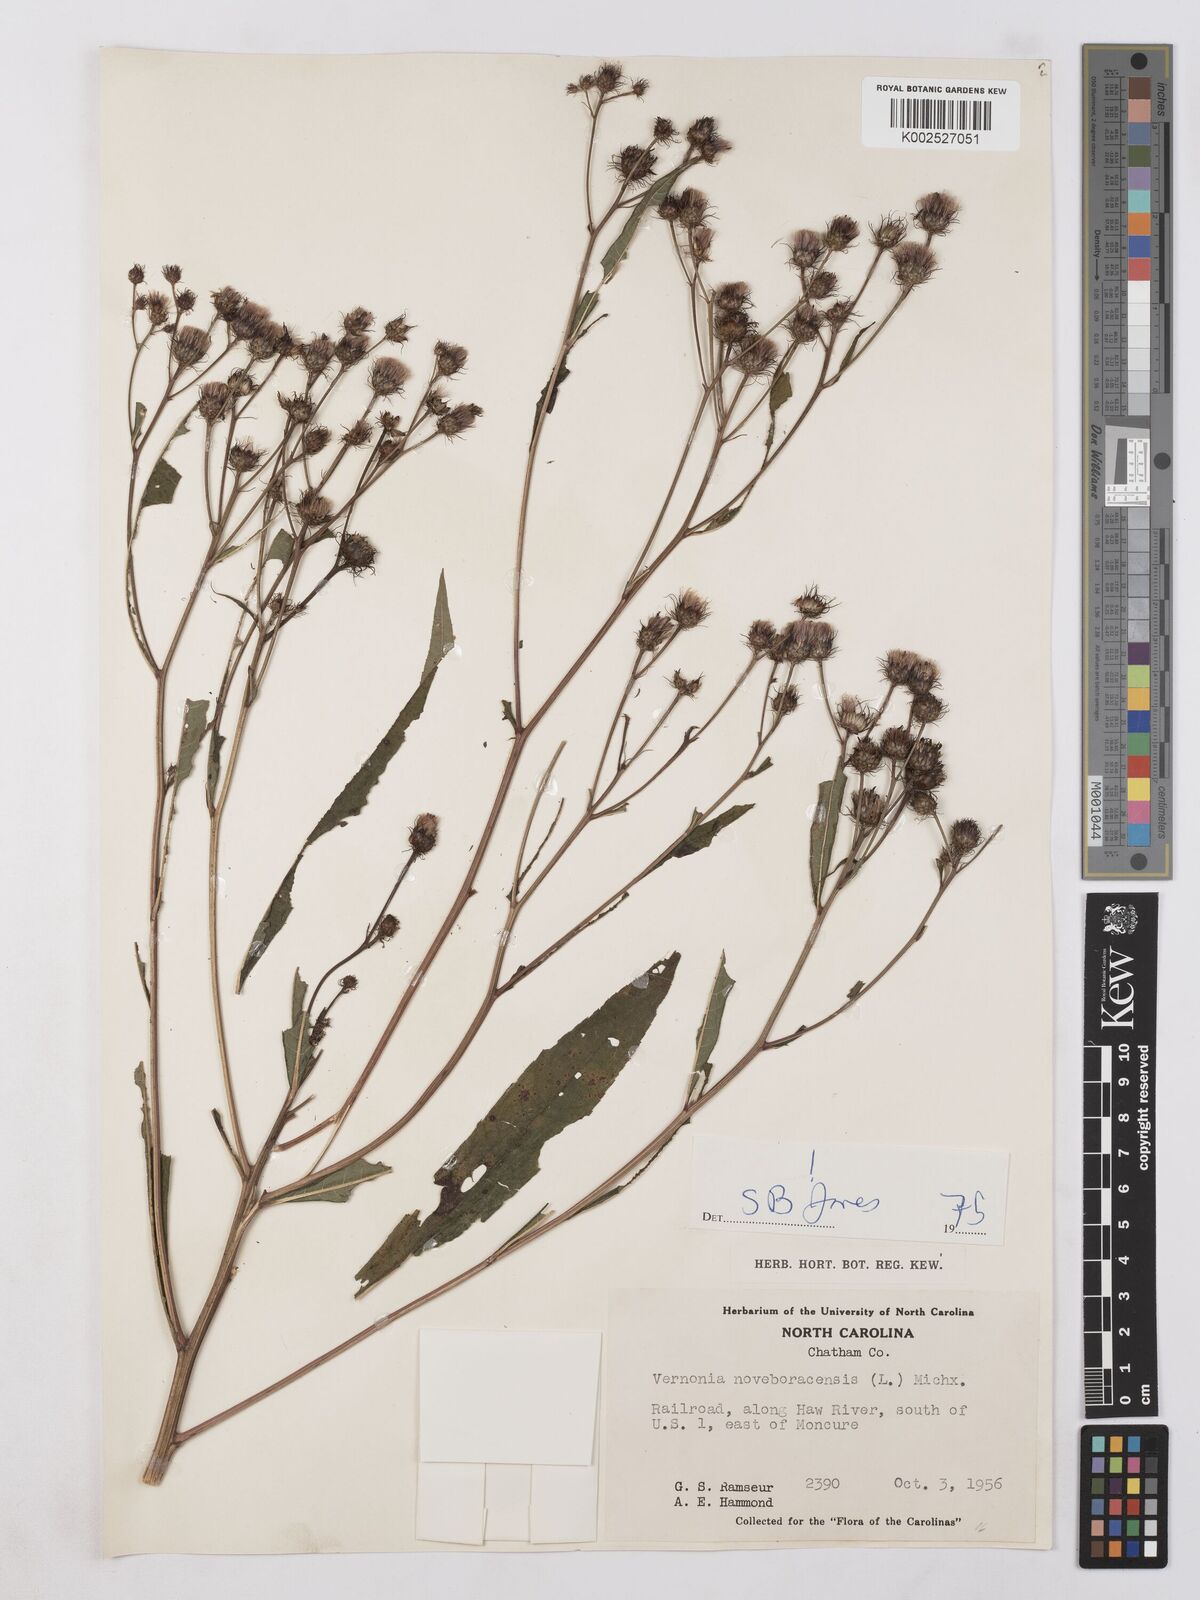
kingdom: Plantae
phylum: Tracheophyta
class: Magnoliopsida
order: Asterales
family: Asteraceae
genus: Vernonia
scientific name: Vernonia noveboracensis
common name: New york ironweed
